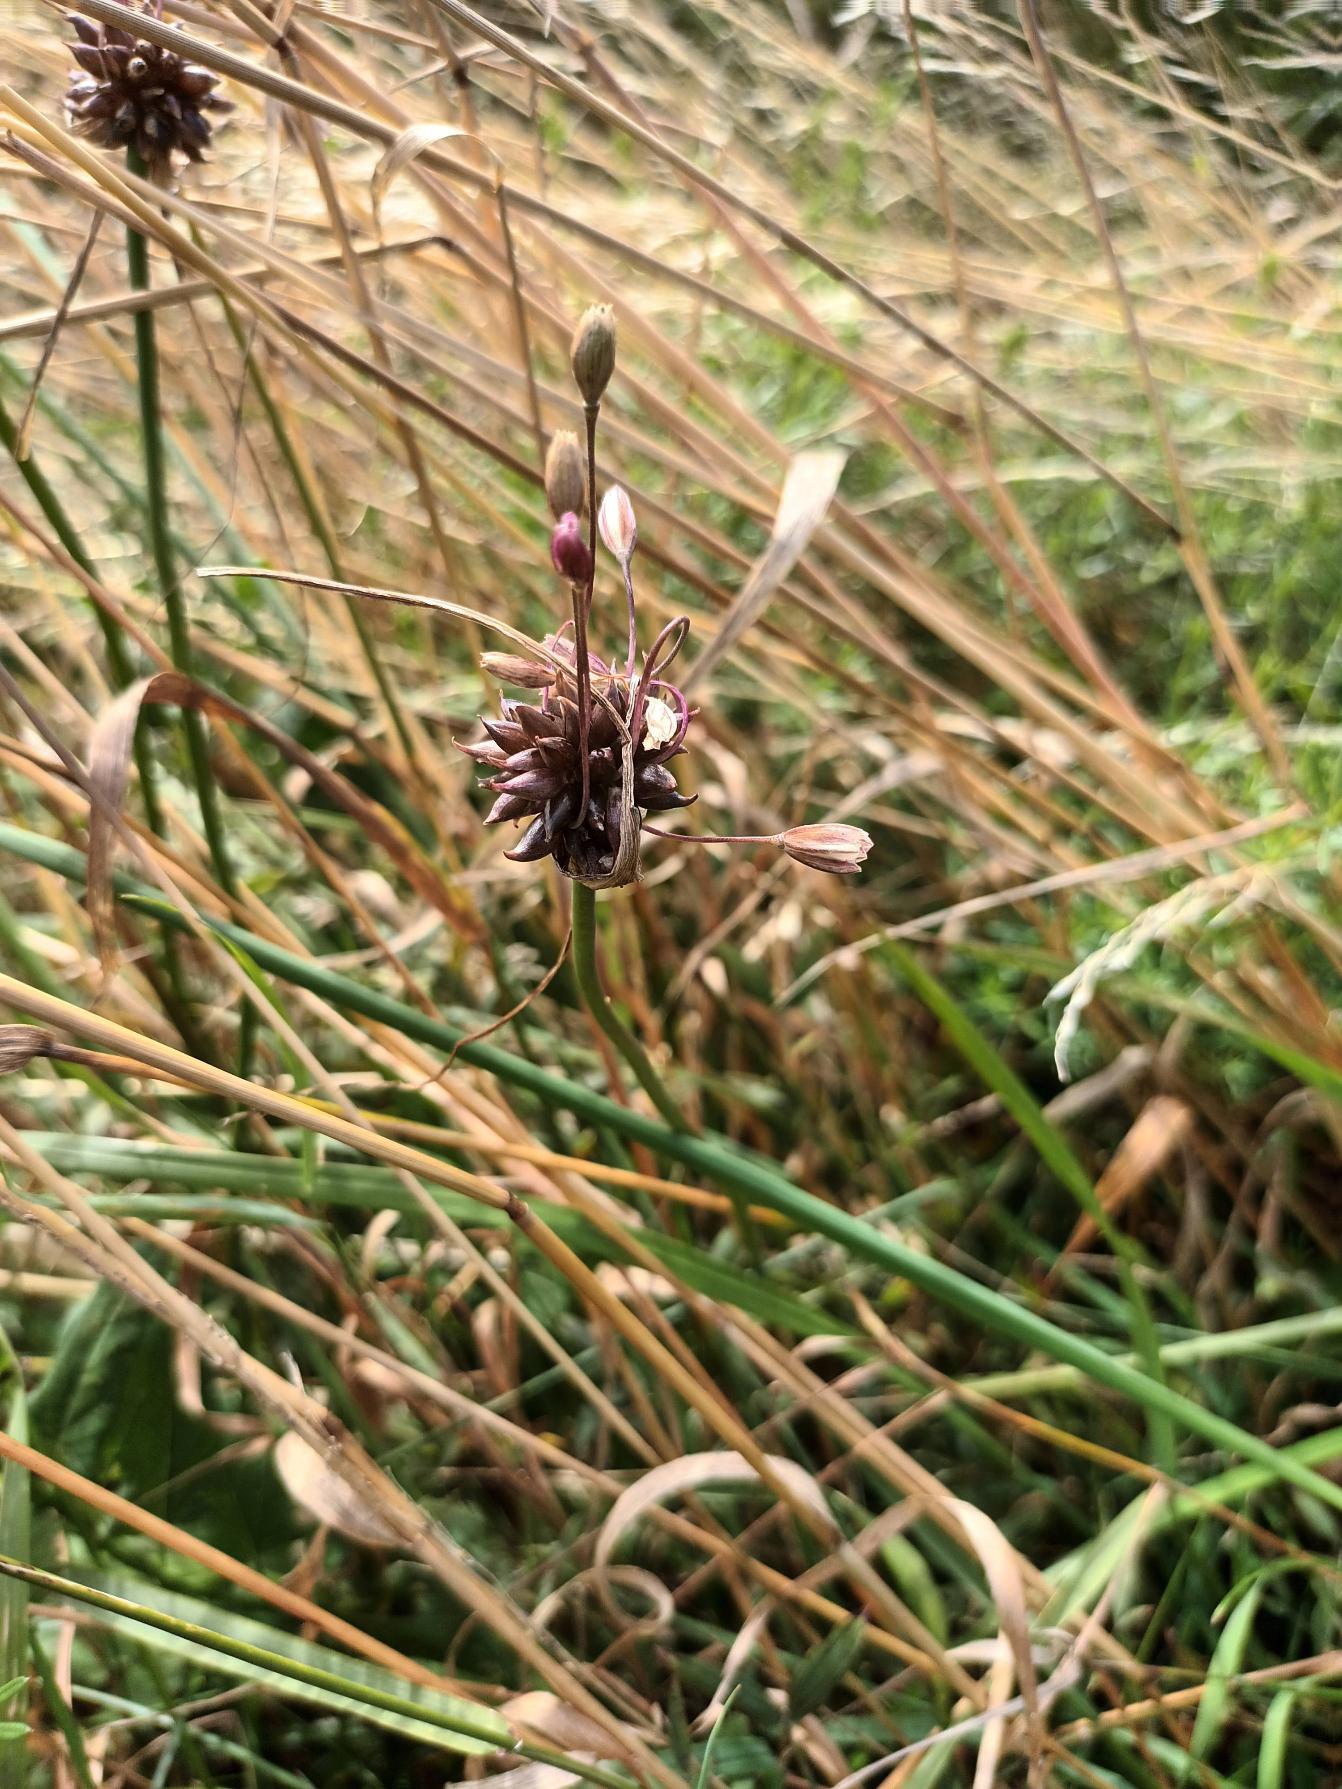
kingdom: Plantae
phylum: Tracheophyta
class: Liliopsida
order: Asparagales
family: Amaryllidaceae
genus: Allium
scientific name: Allium oleraceum
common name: Vild løg
